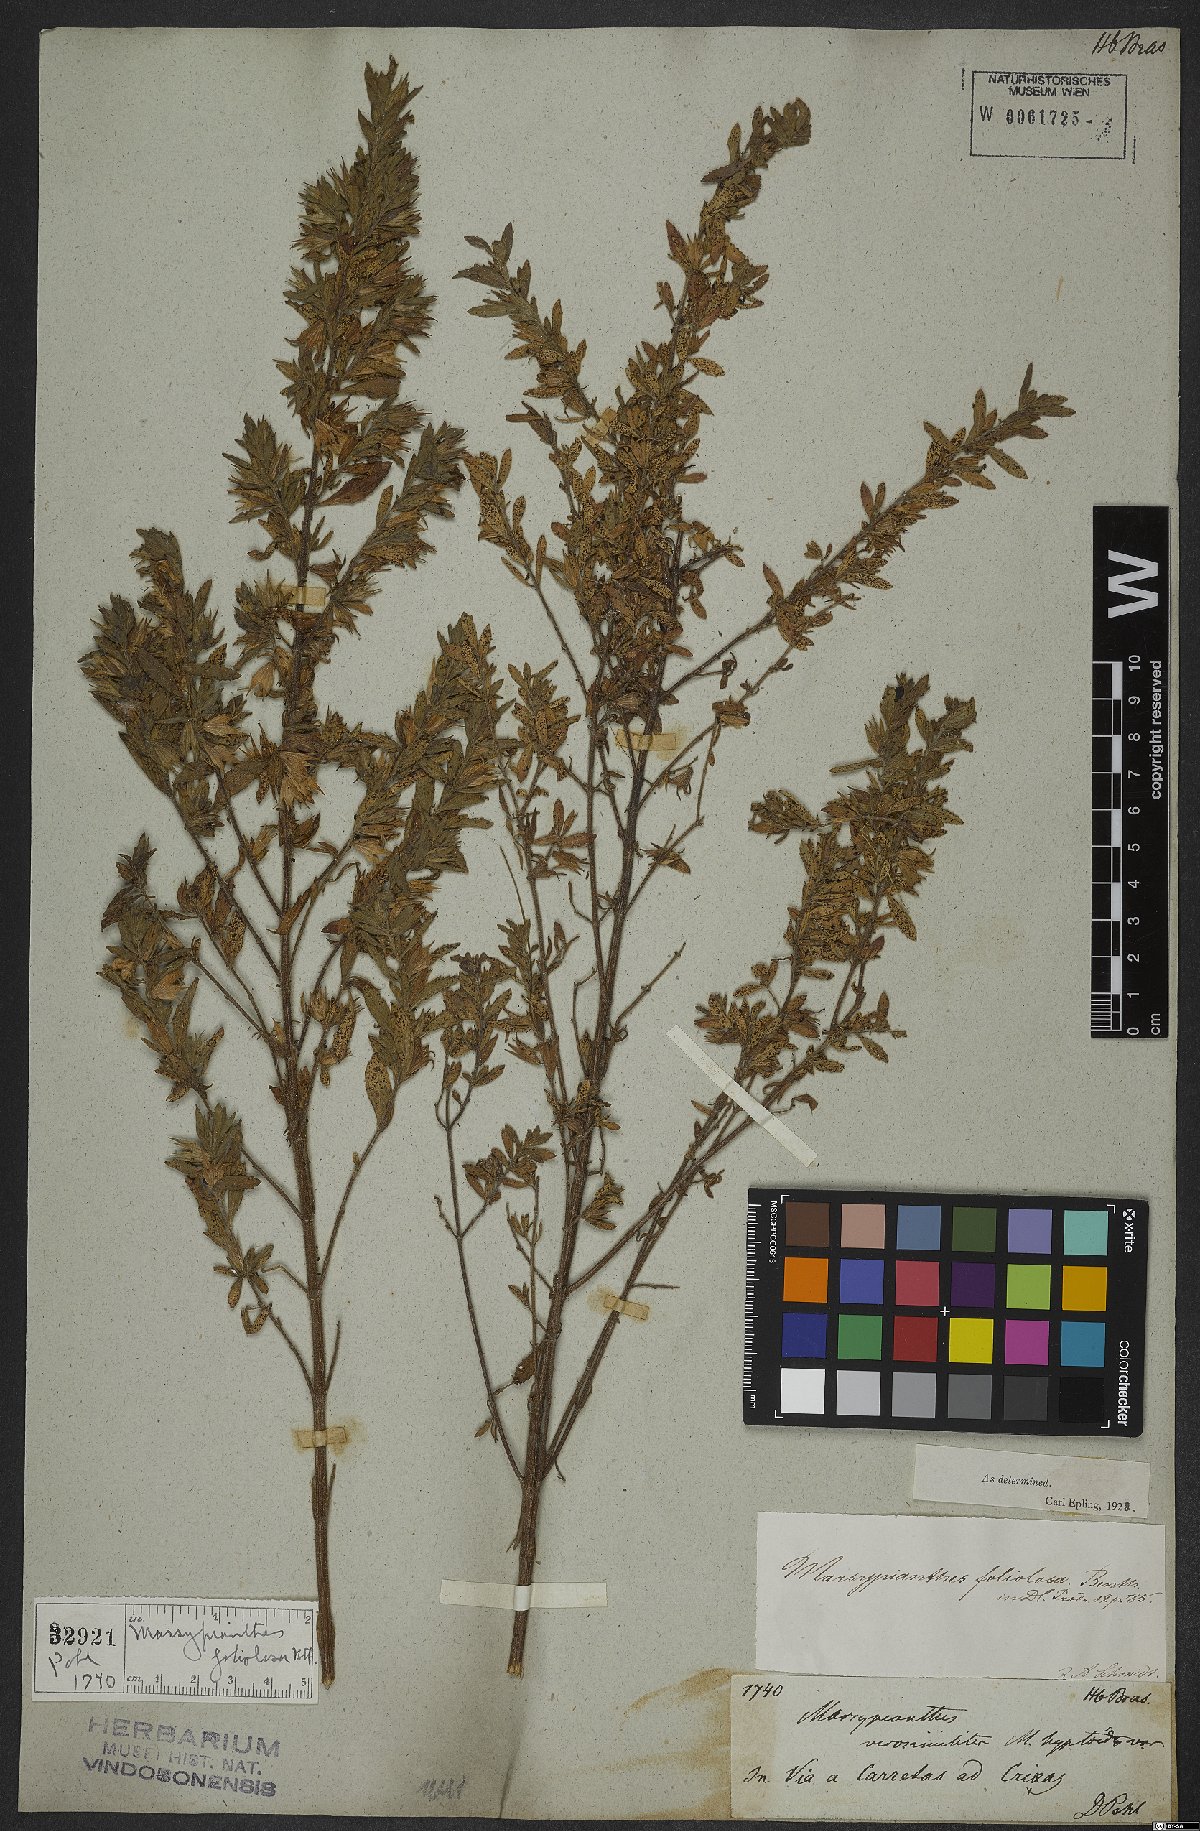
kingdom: Plantae
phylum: Tracheophyta
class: Magnoliopsida
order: Lamiales
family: Lamiaceae
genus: Marsypianthes
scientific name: Marsypianthes foliolosa
